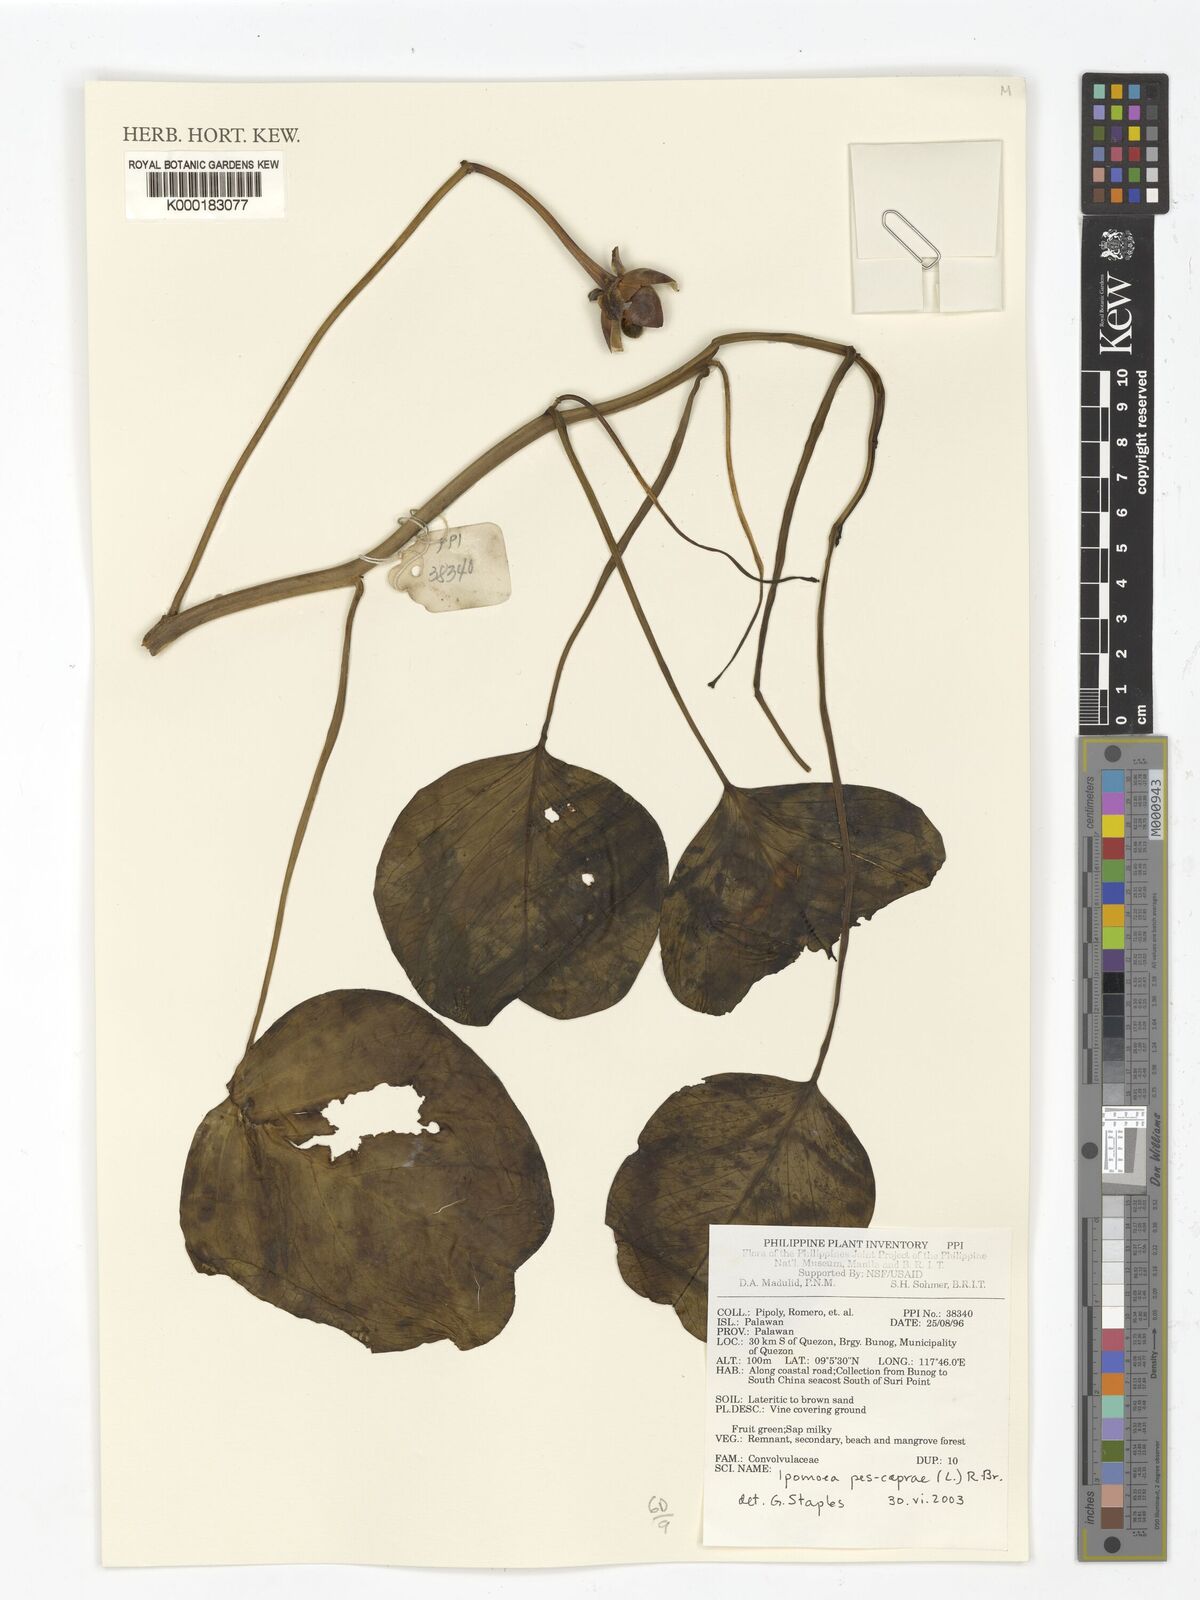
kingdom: Plantae
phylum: Tracheophyta
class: Magnoliopsida
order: Solanales
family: Convolvulaceae
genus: Ipomoea
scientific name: Ipomoea pes-caprae
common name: Beach morning glory
